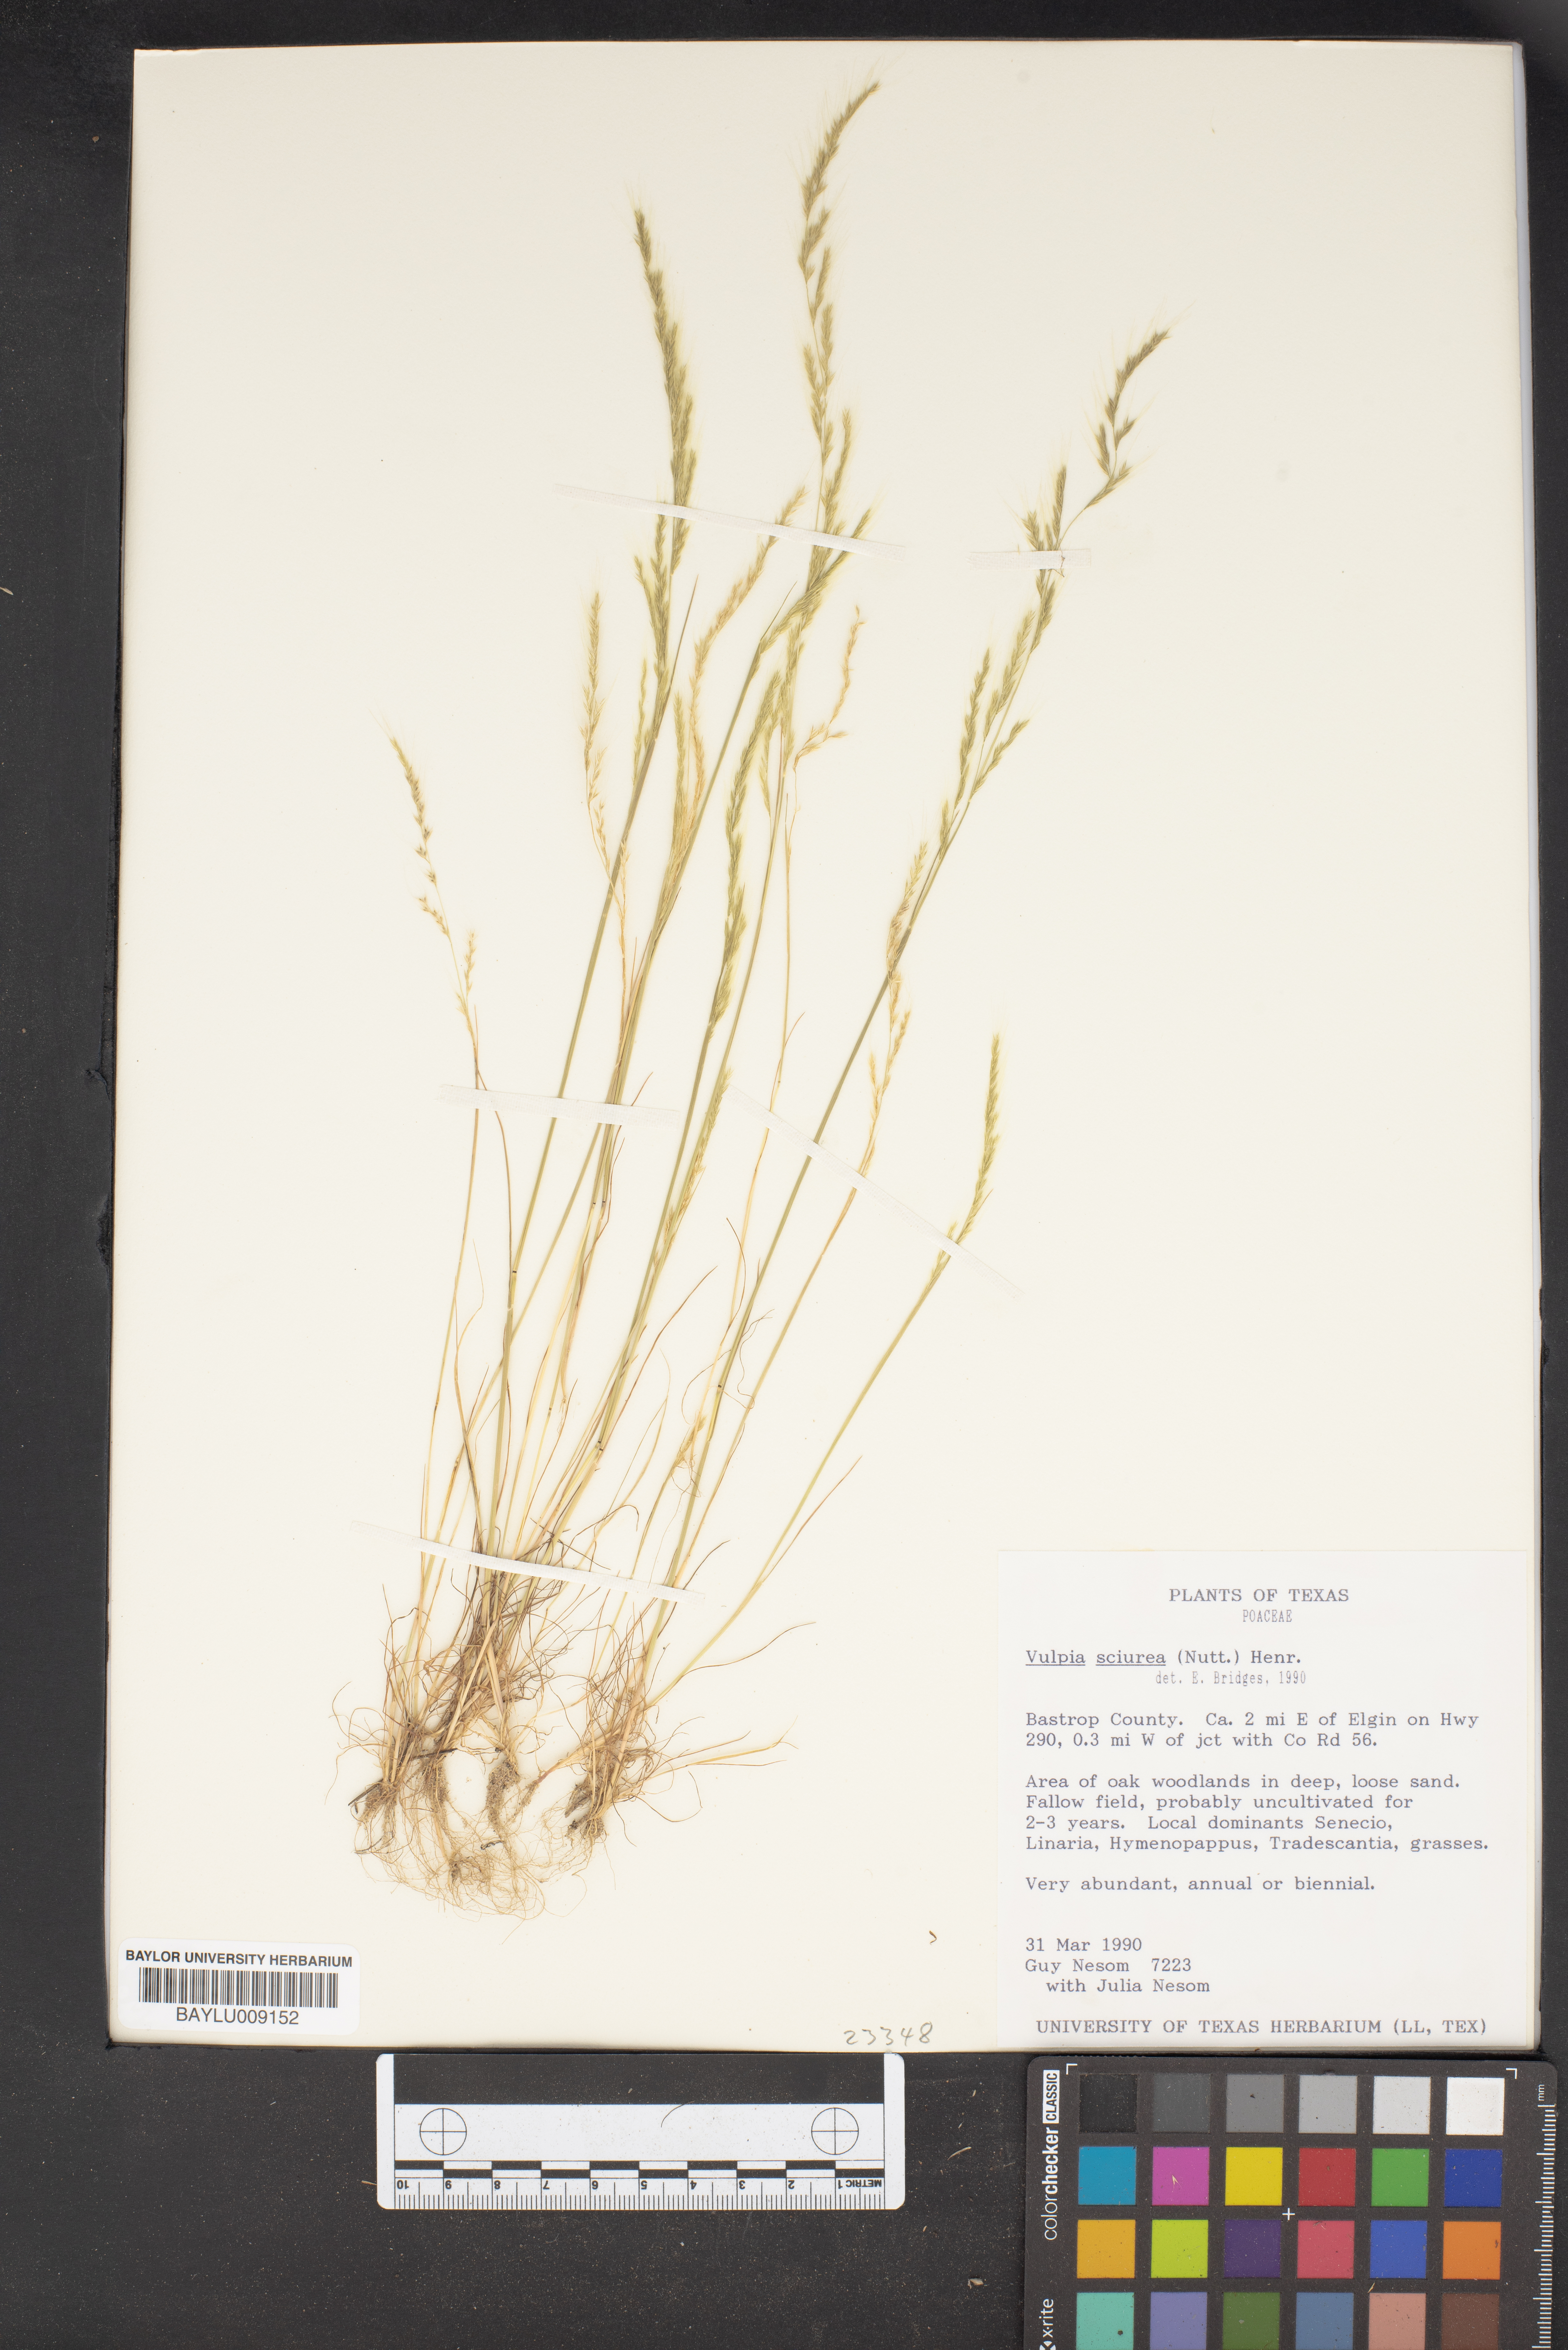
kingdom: Plantae
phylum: Tracheophyta
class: Liliopsida
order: Poales
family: Poaceae
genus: Festuca
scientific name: Festuca sciurea
